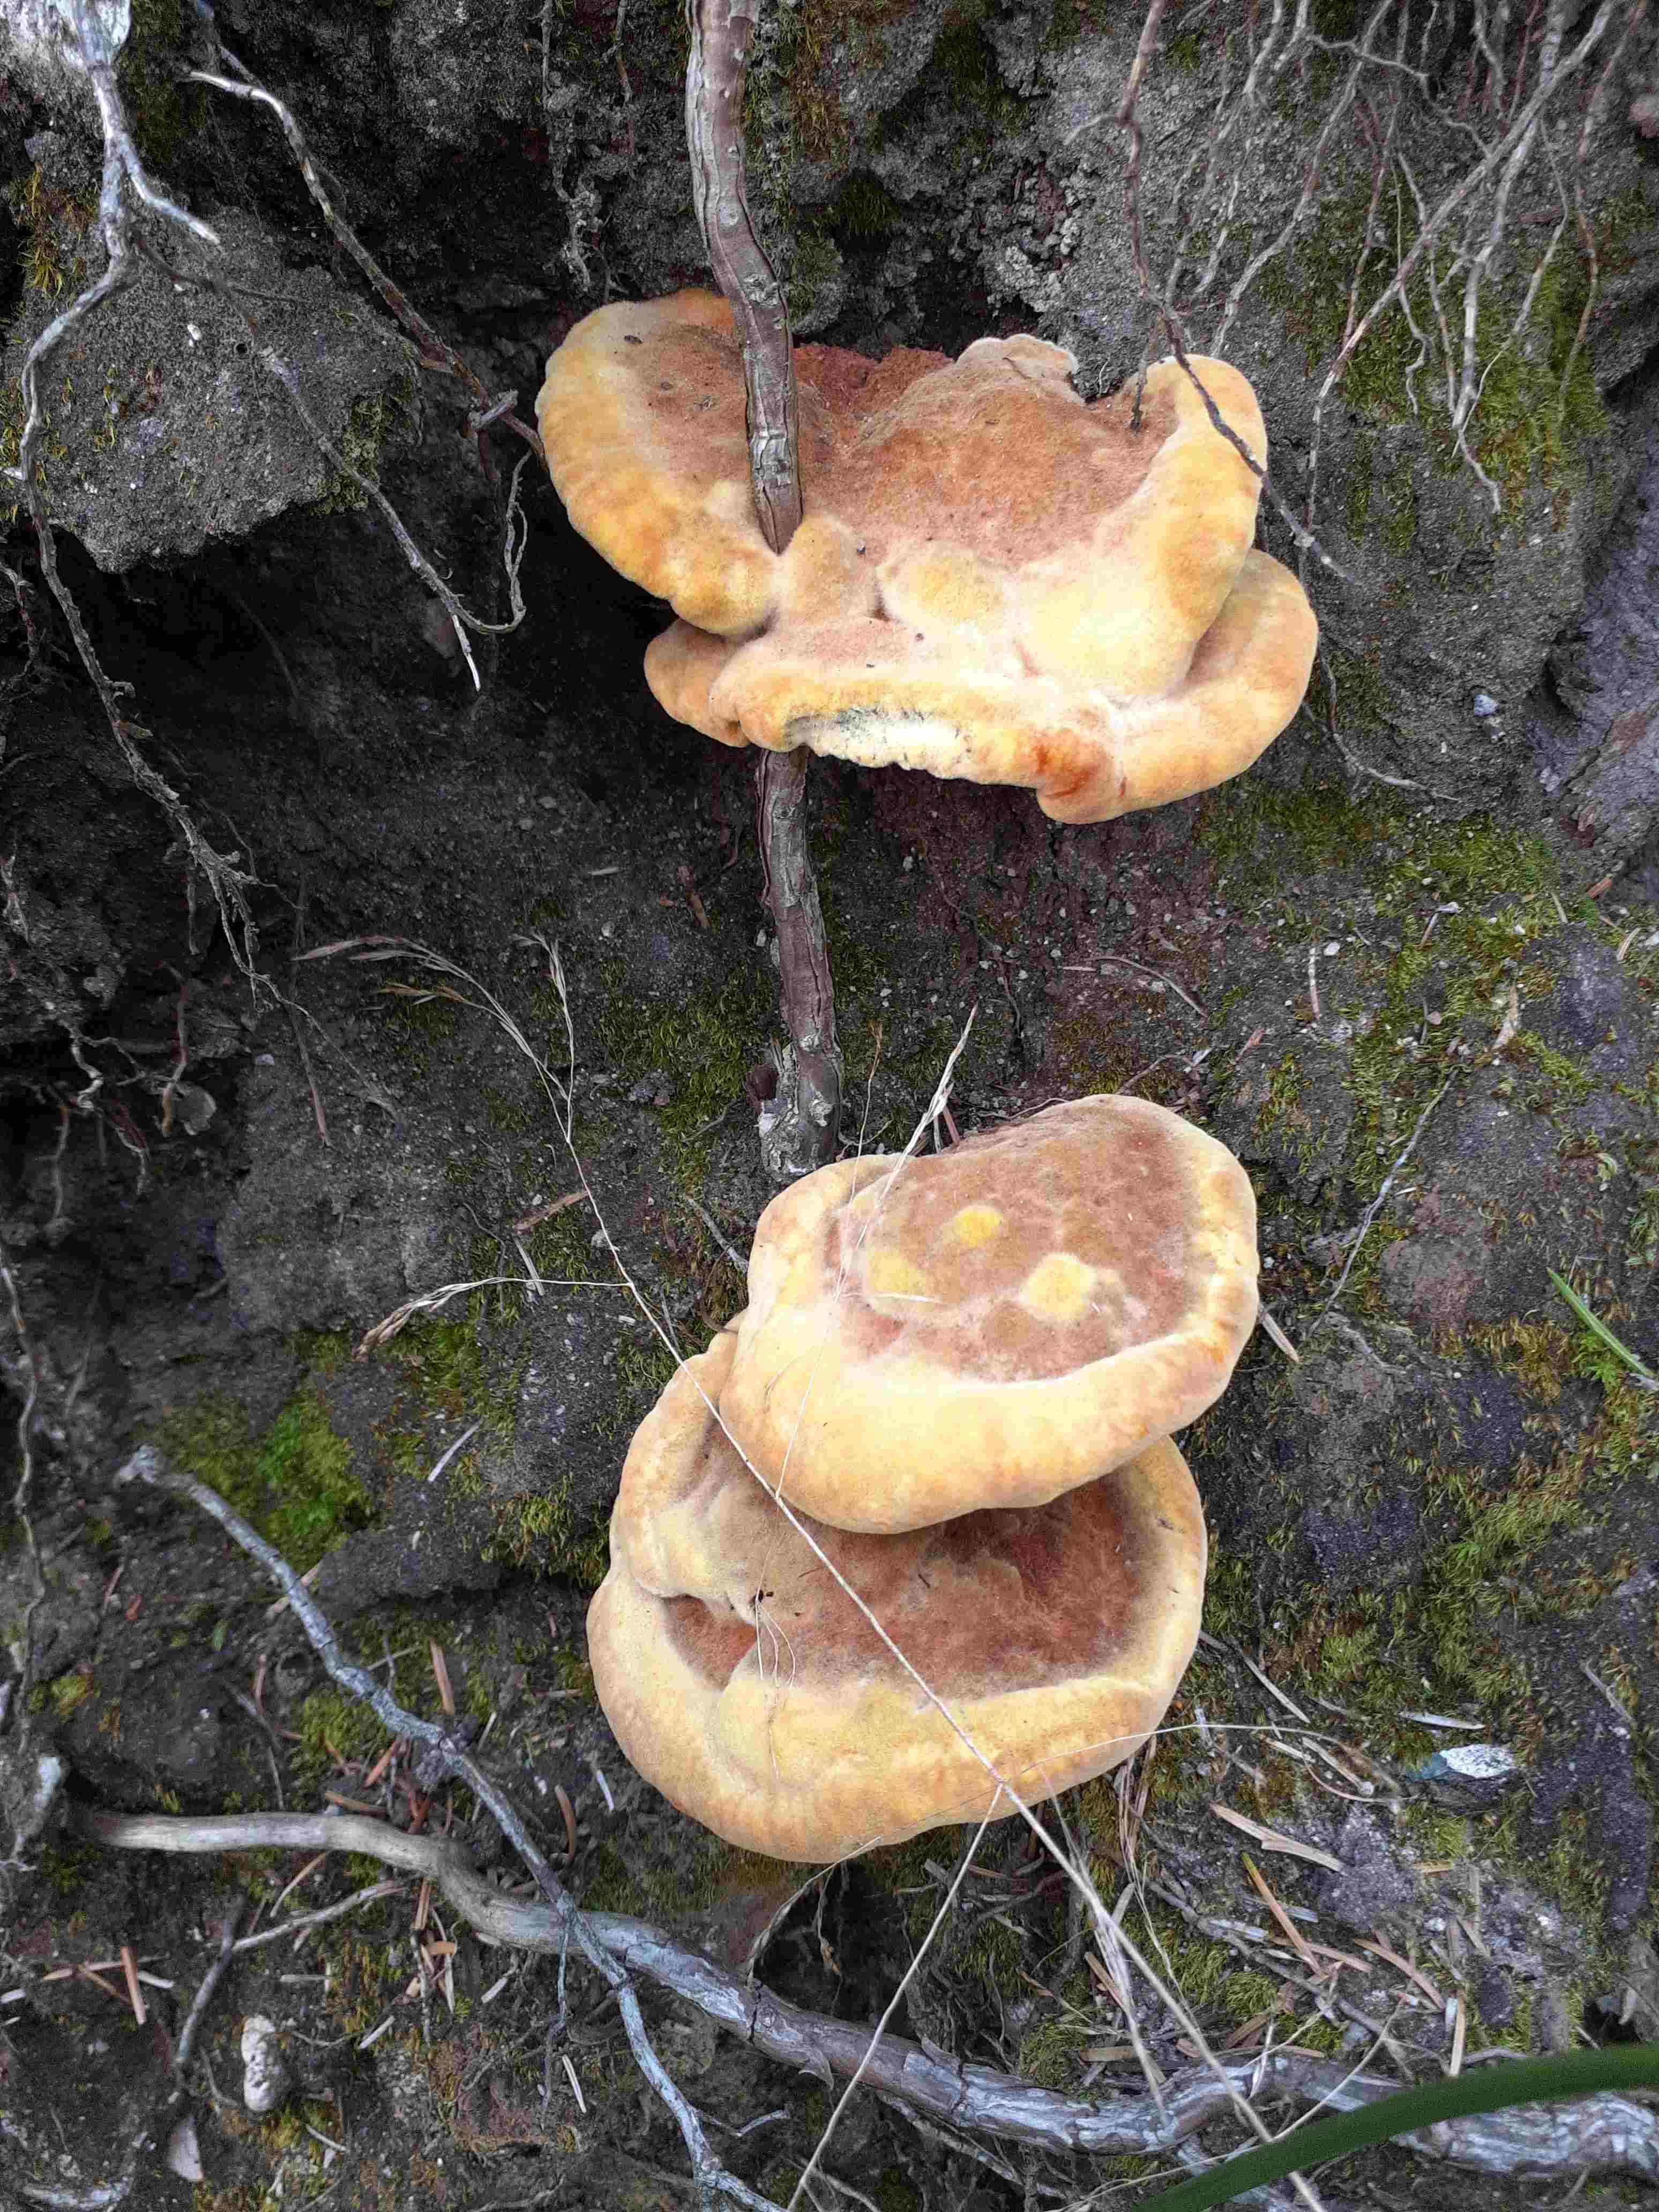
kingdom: Fungi
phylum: Basidiomycota
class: Agaricomycetes
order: Polyporales
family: Laetiporaceae
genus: Phaeolus
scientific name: Phaeolus schweinitzii
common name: brunporesvamp
